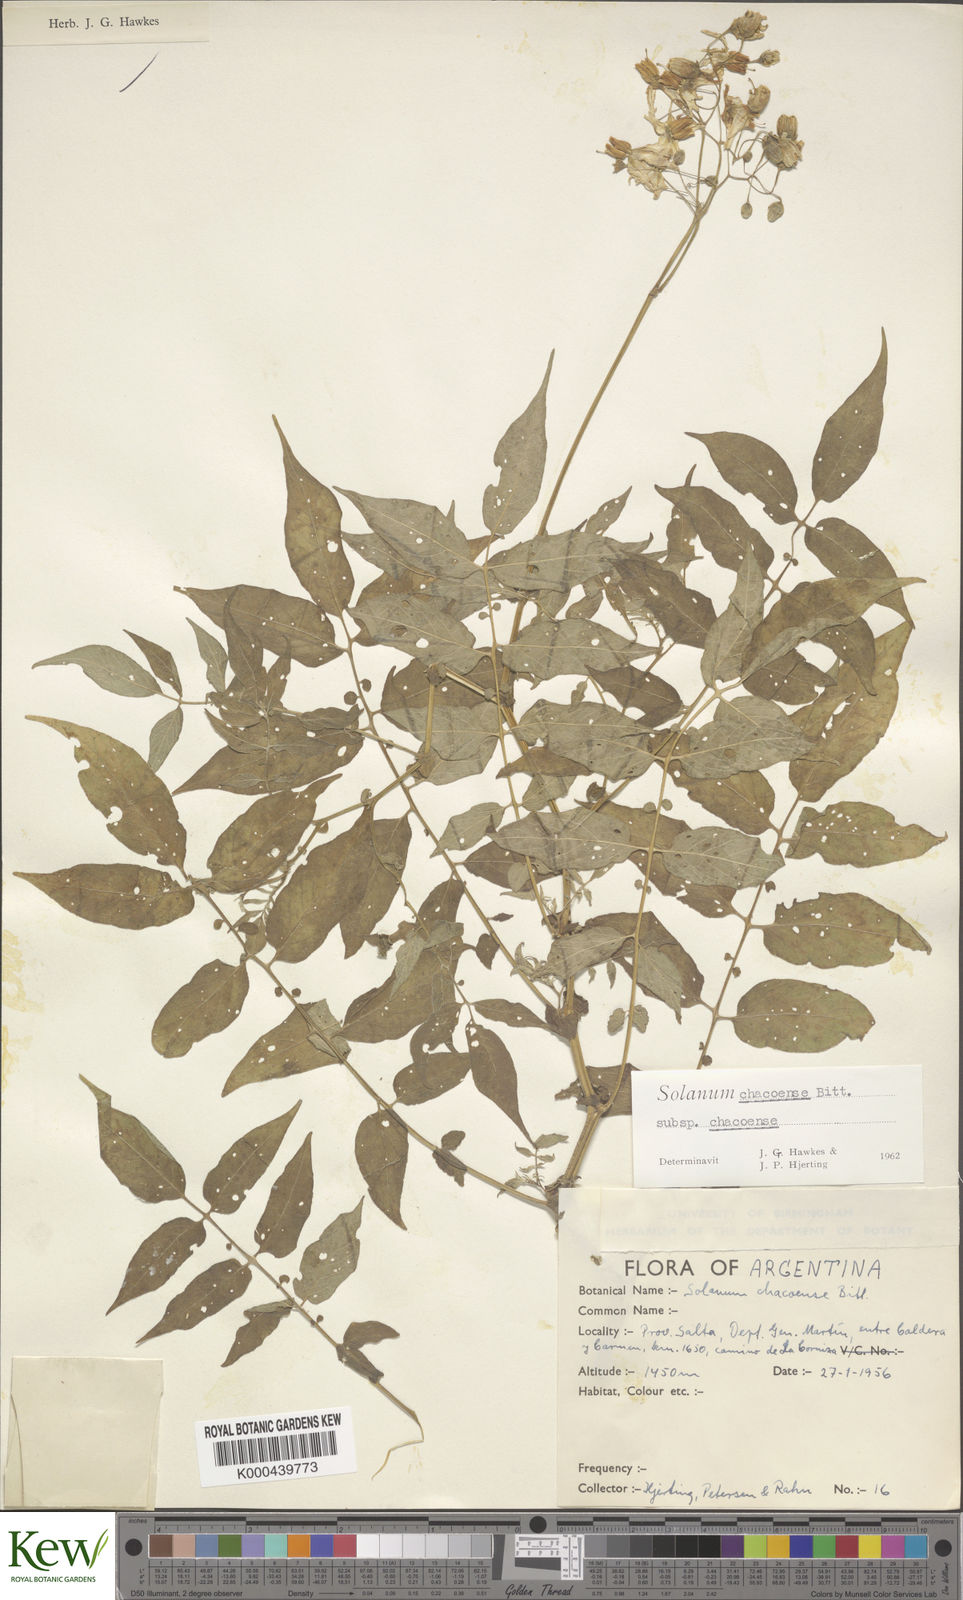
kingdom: Plantae
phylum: Tracheophyta
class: Magnoliopsida
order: Solanales
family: Solanaceae
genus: Solanum
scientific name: Solanum chacoense
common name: Chaco potato
